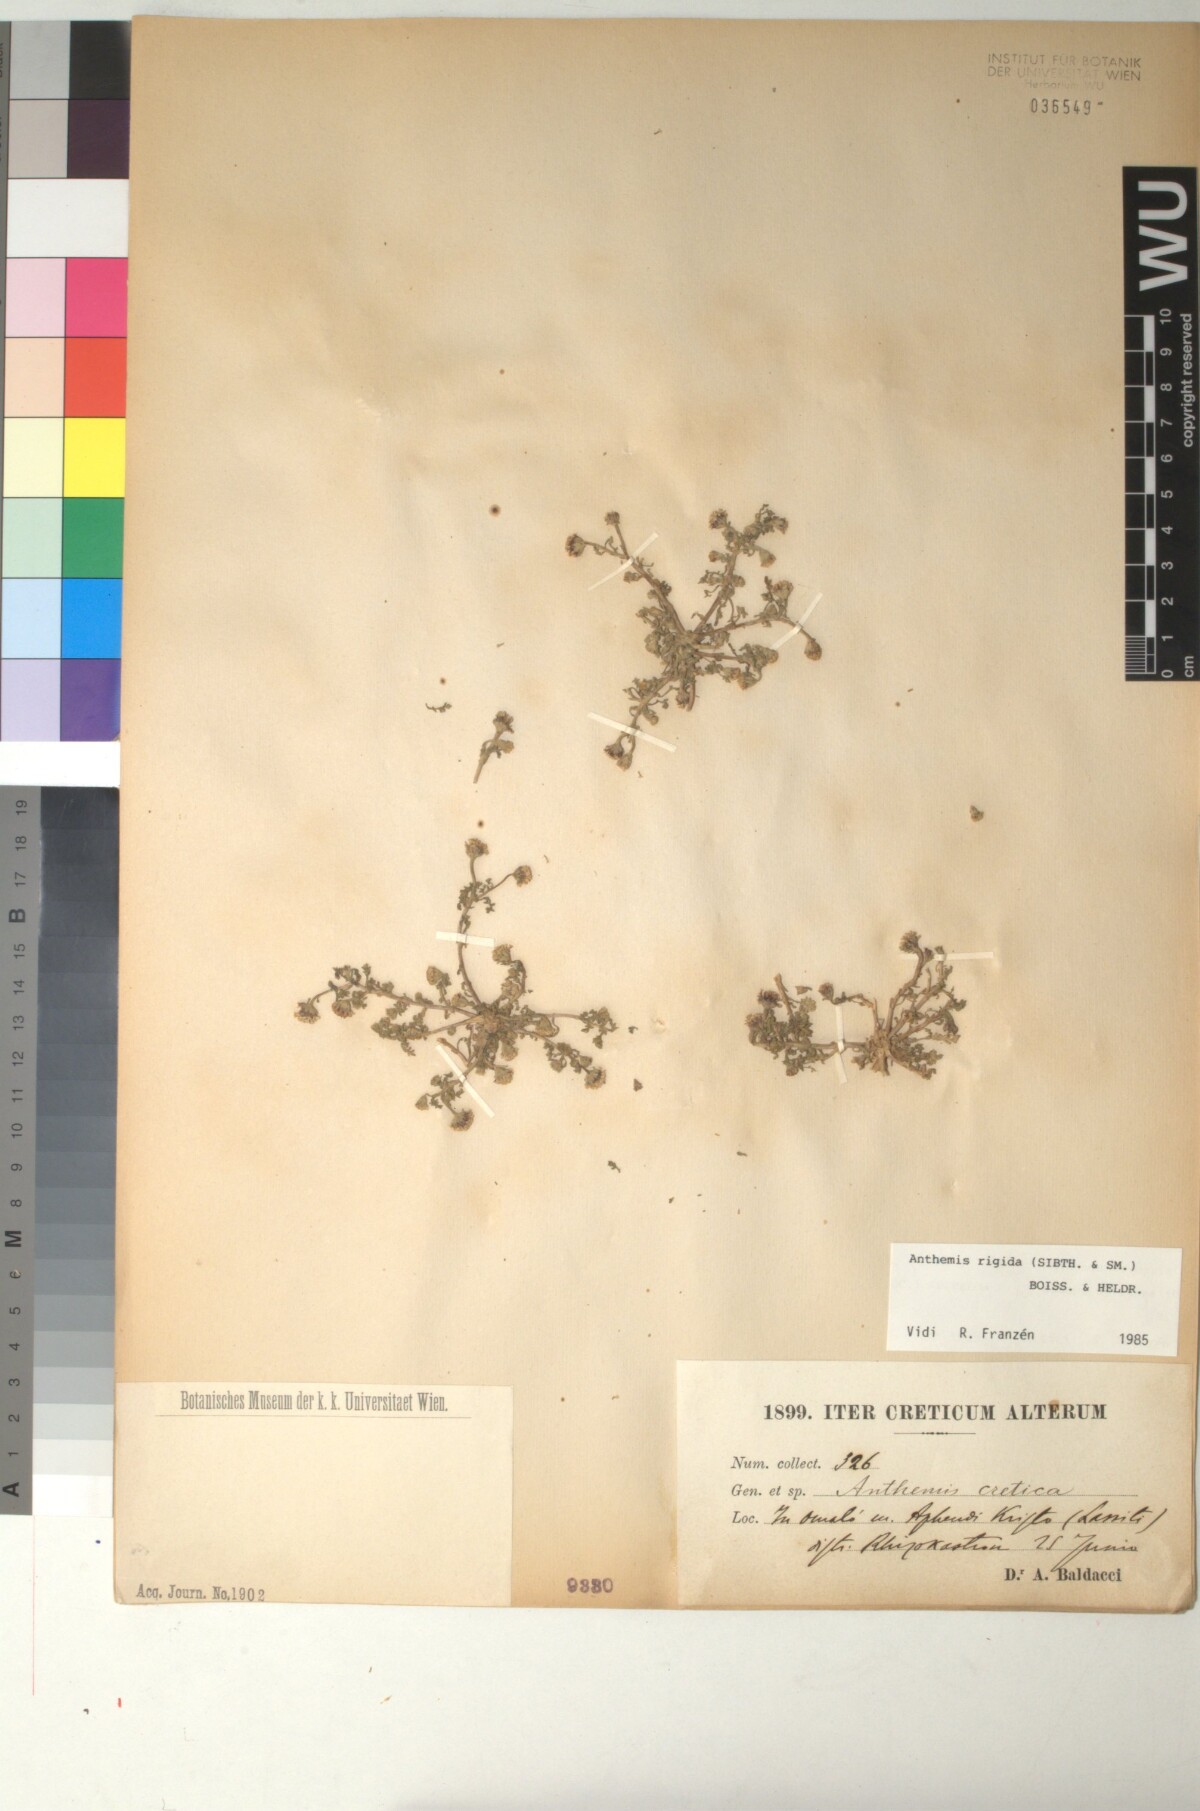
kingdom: Plantae
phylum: Tracheophyta
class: Magnoliopsida
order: Asterales
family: Asteraceae
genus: Anthemis
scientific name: Anthemis rigida
